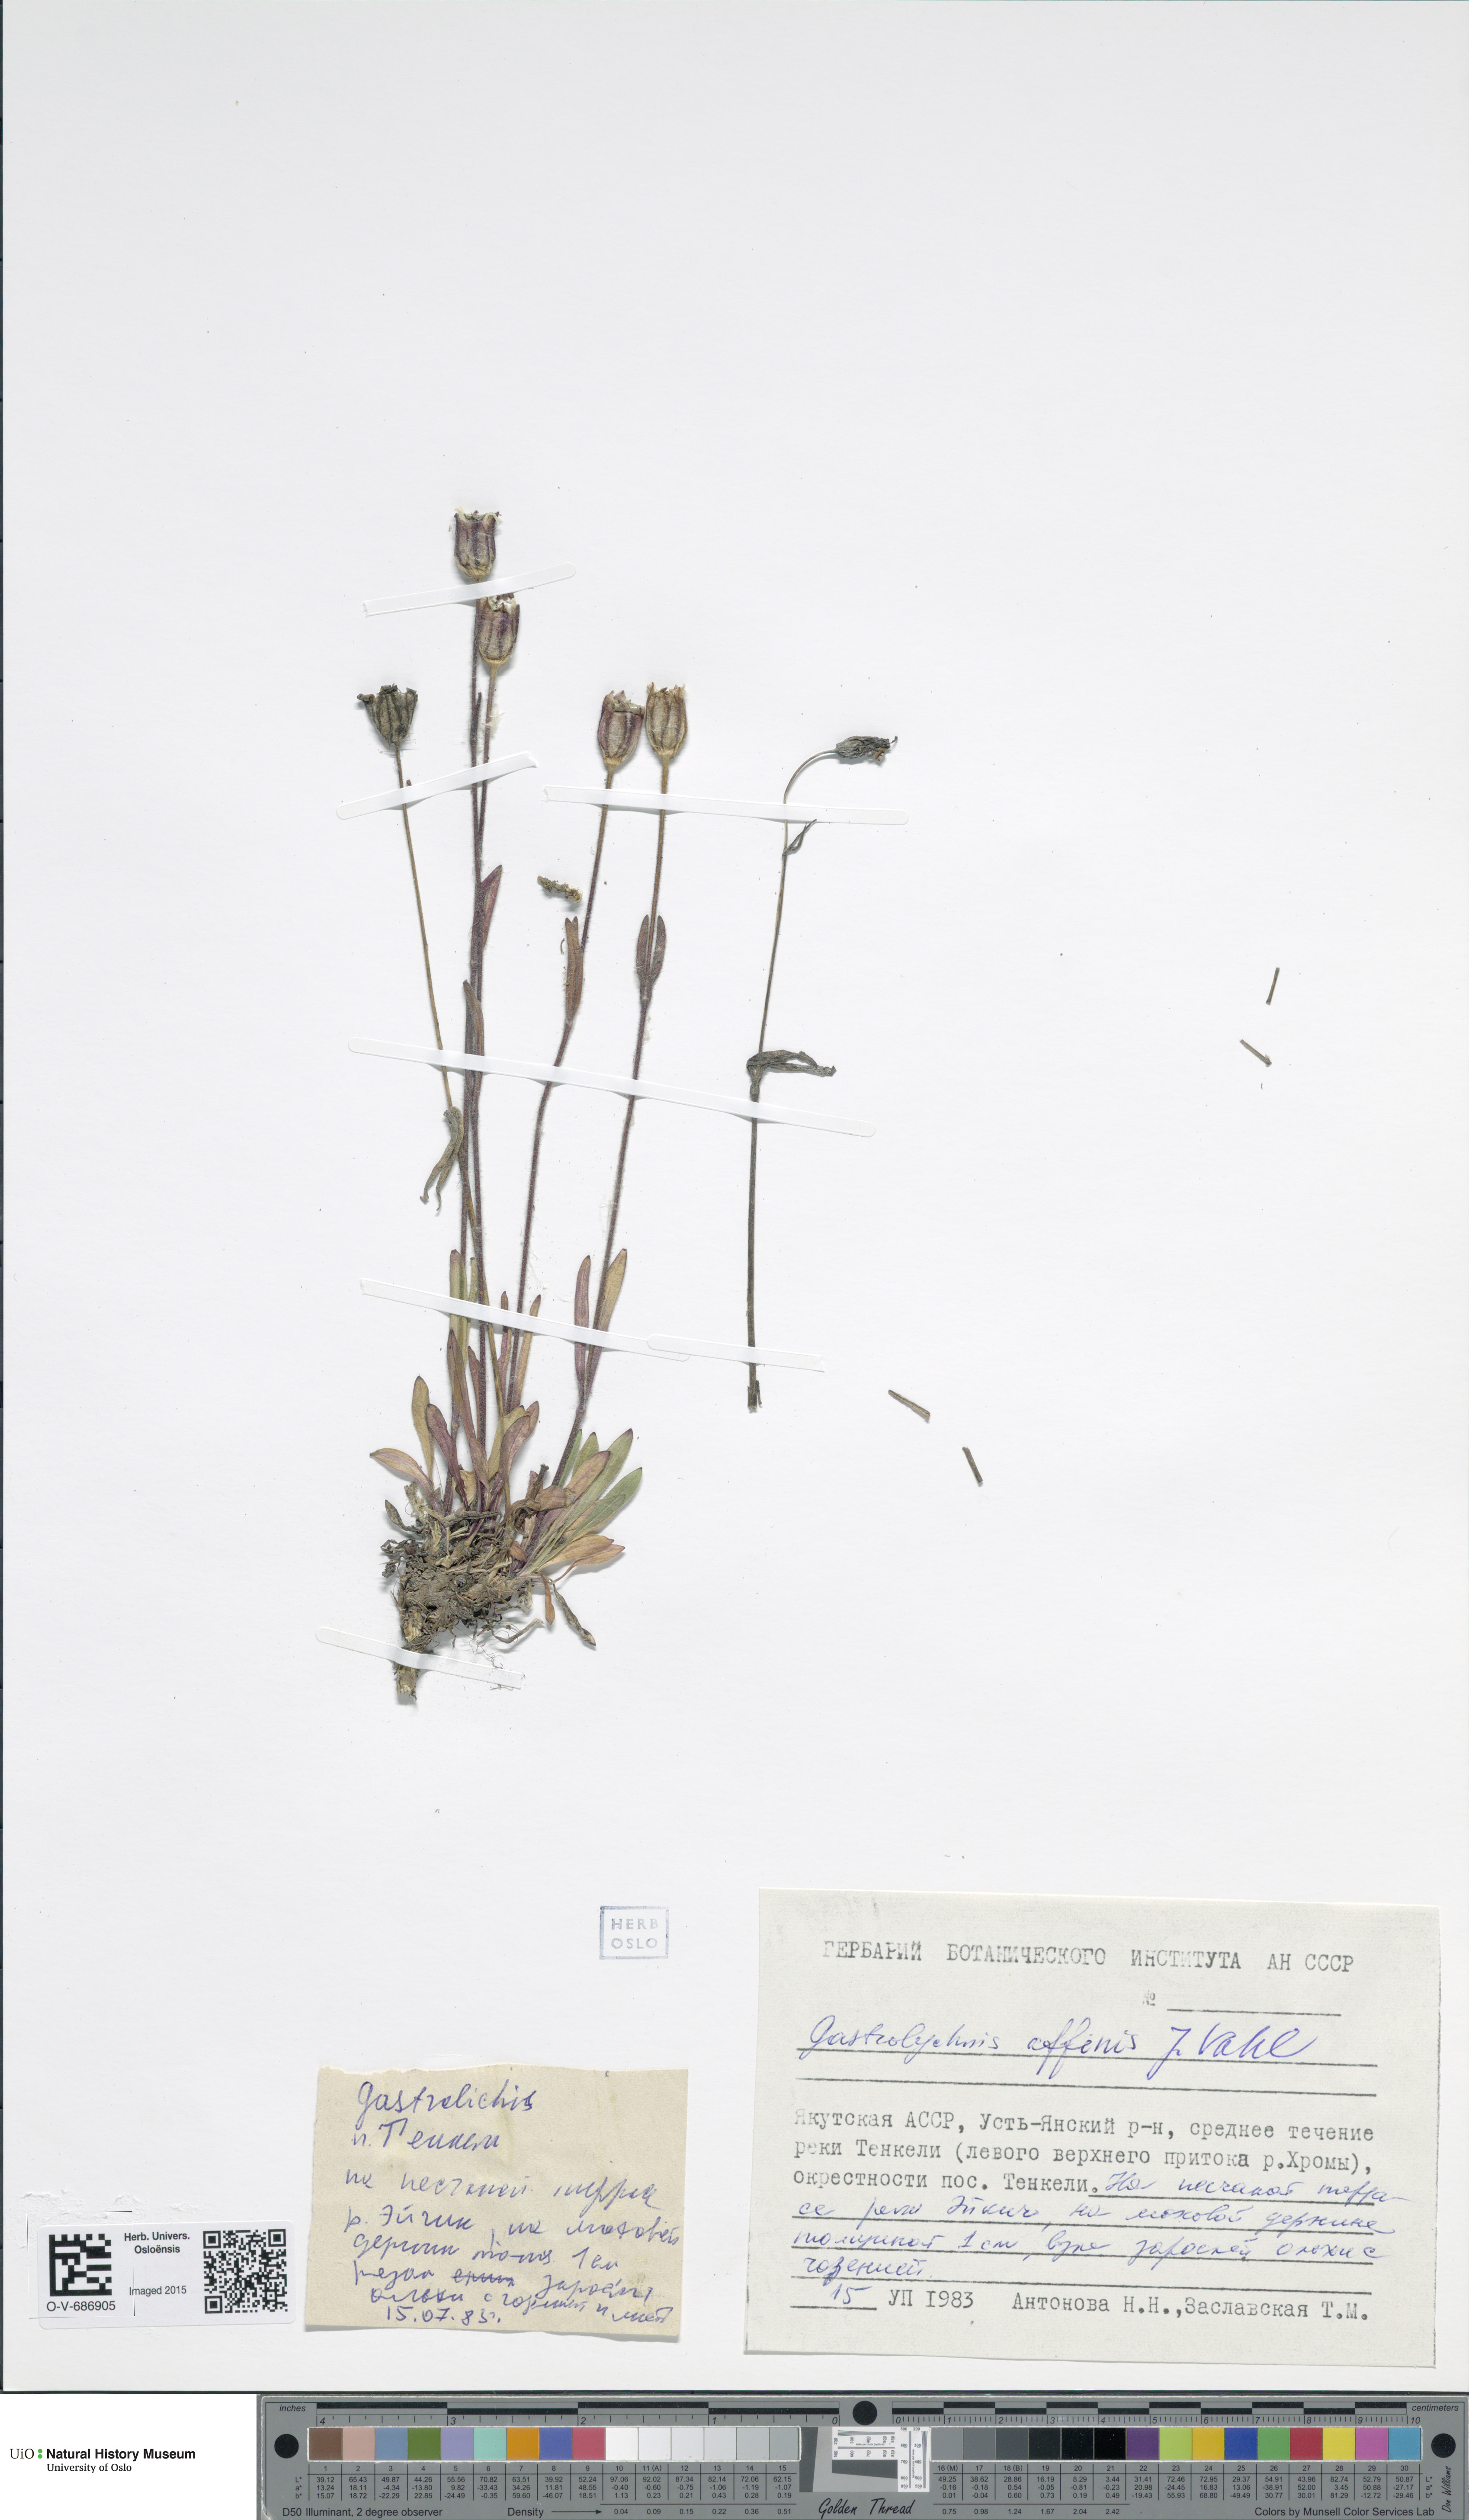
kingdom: Plantae
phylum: Tracheophyta
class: Magnoliopsida
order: Caryophyllales
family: Caryophyllaceae
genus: Silene
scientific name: Silene involucrata
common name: Greater arctic campion
